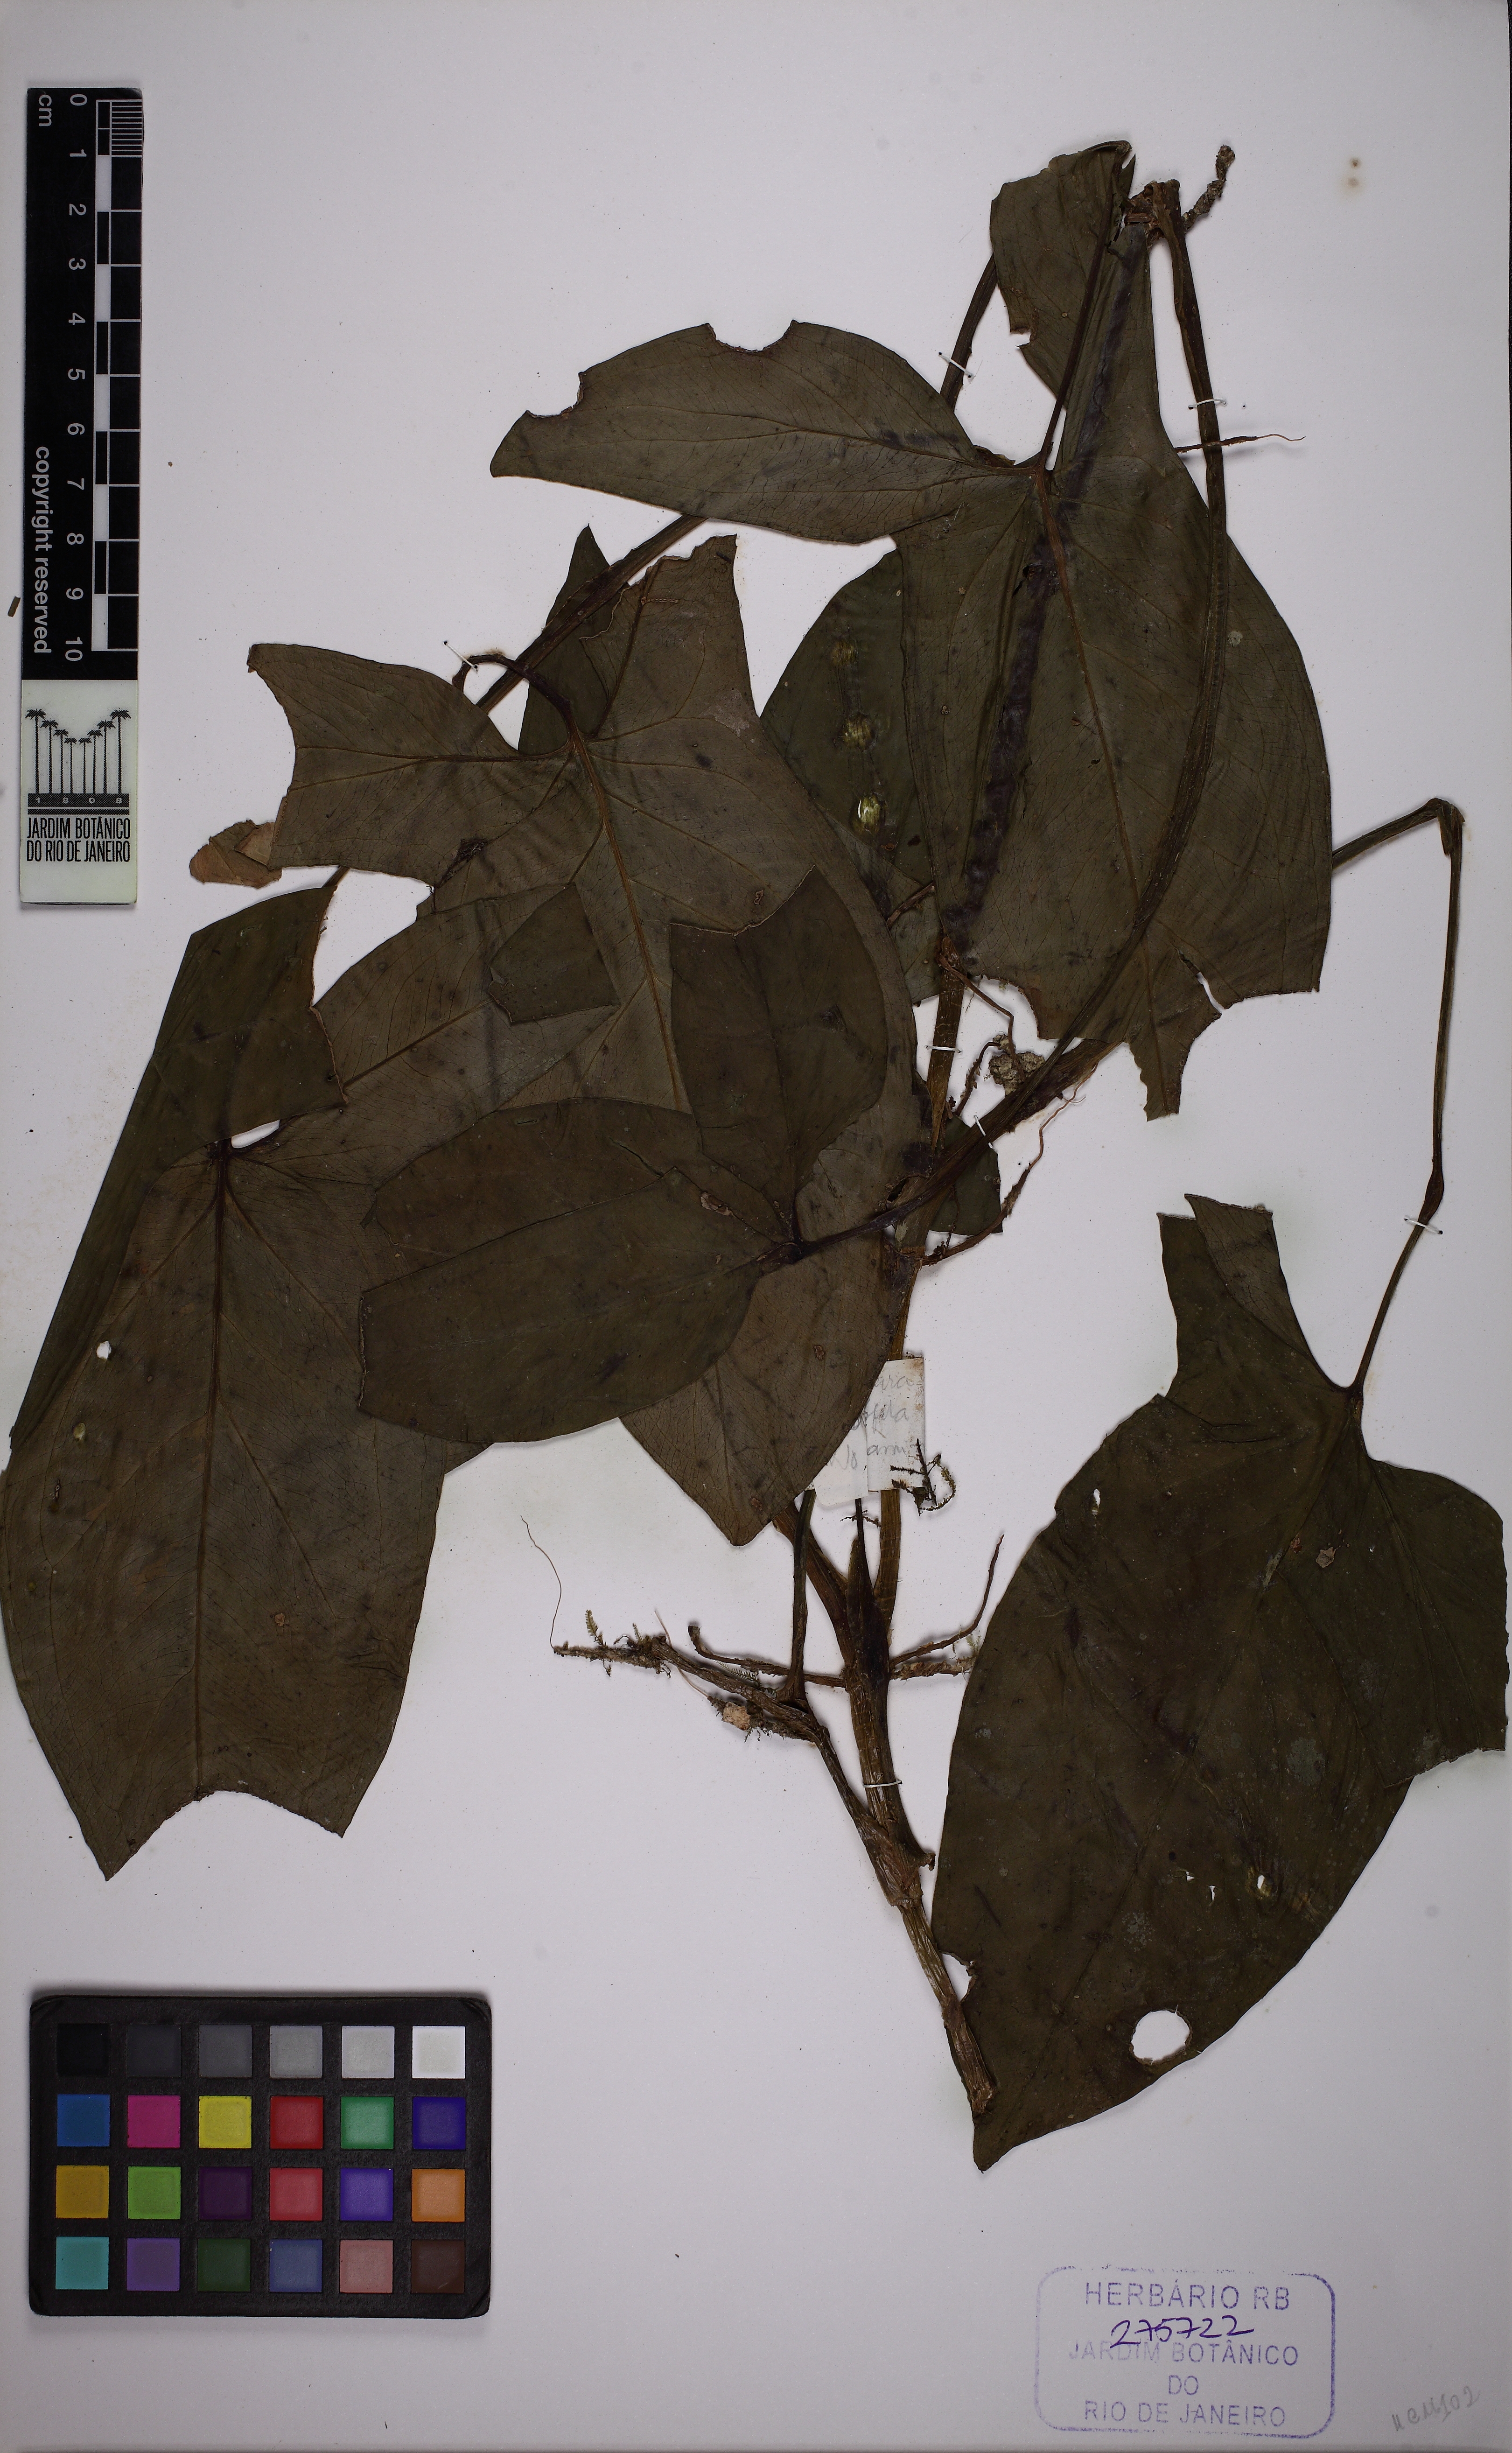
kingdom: Plantae
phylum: Tracheophyta
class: Liliopsida
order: Alismatales
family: Araceae
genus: Syngonium
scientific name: Syngonium podophyllum
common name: American evergreen
